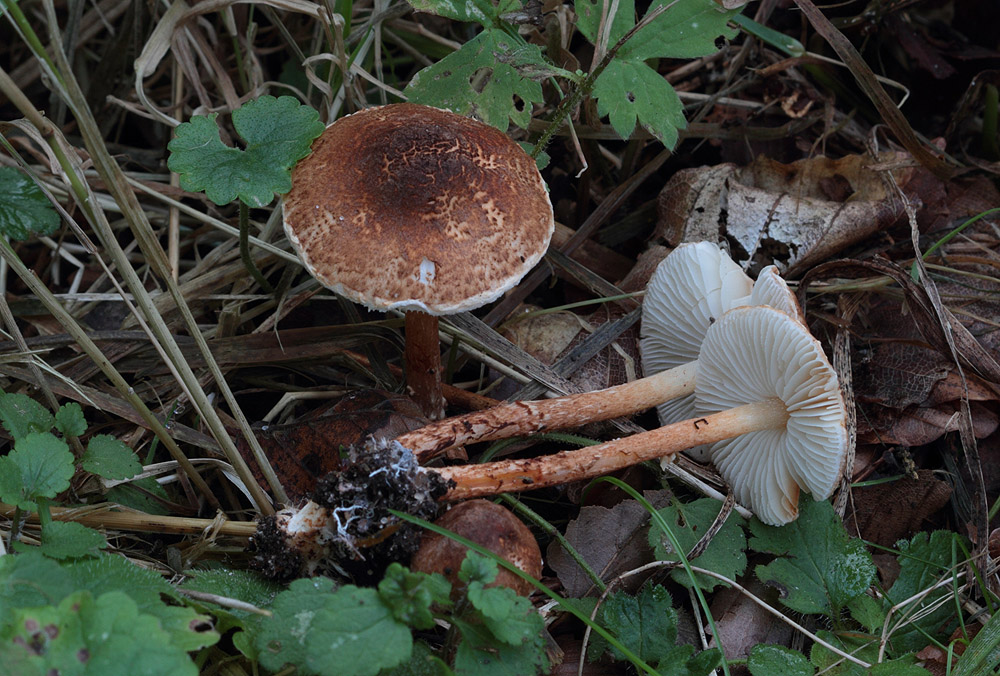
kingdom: Fungi
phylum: Basidiomycota
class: Agaricomycetes
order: Agaricales
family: Agaricaceae
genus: Lepiota
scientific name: Lepiota castanea
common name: kastaniebrun parasolhat
